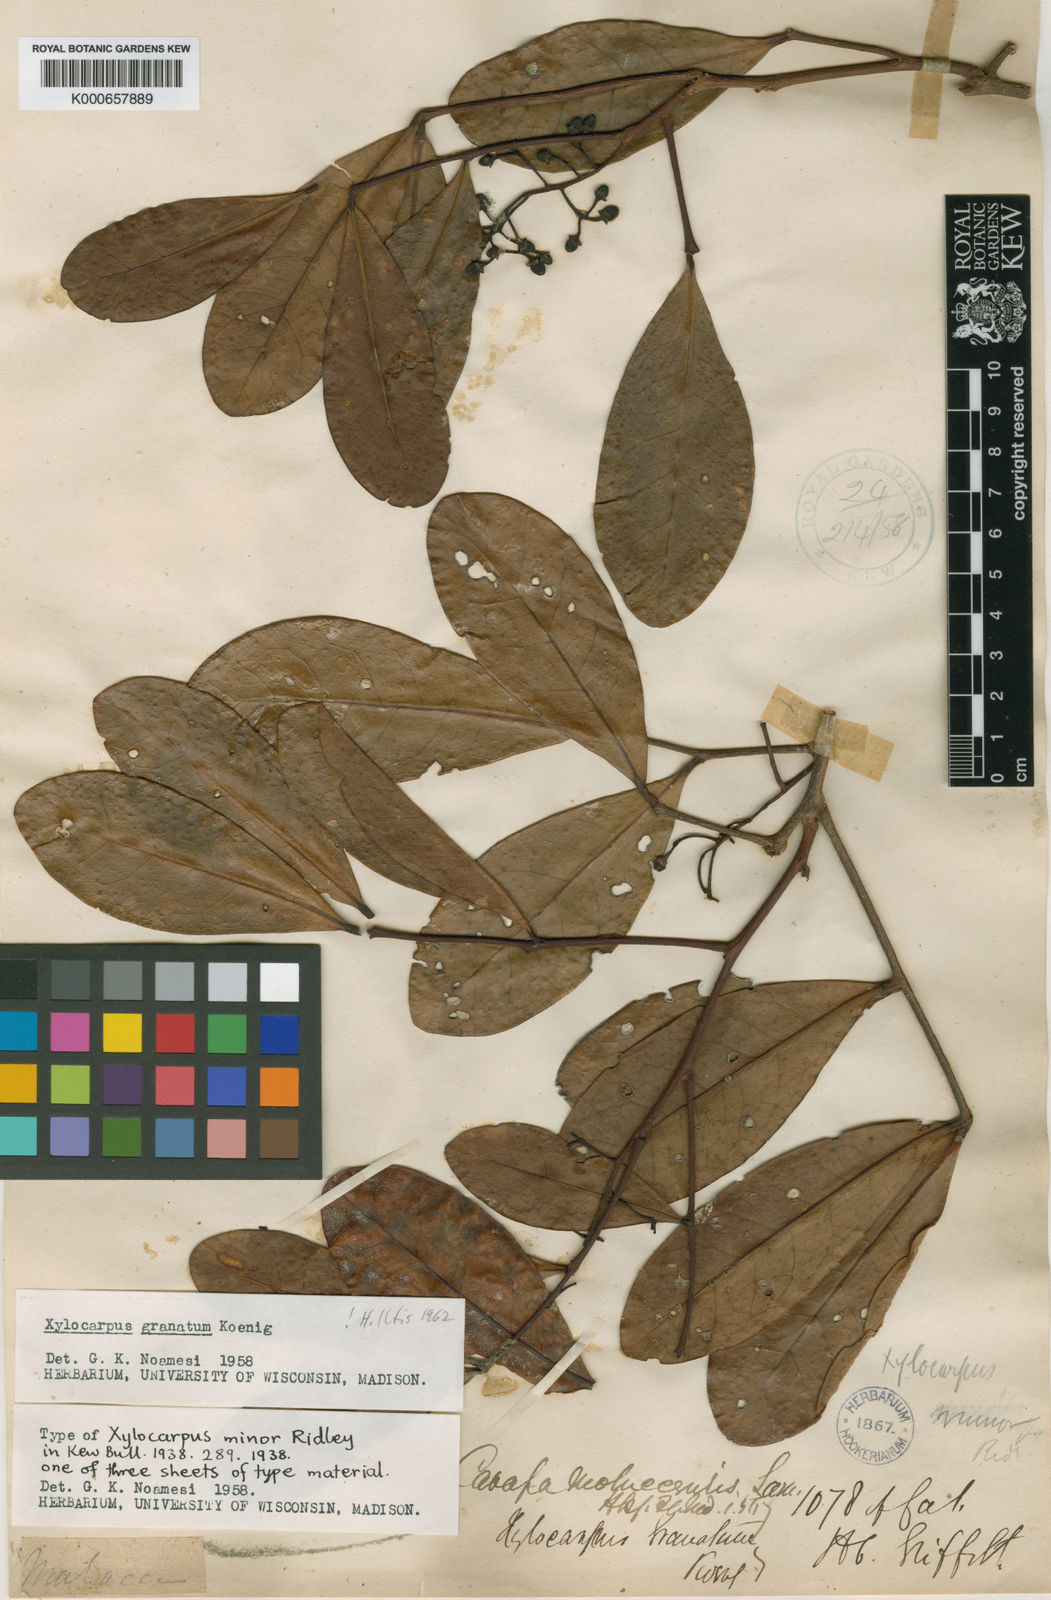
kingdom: Plantae
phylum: Tracheophyta
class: Magnoliopsida
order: Sapindales
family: Meliaceae
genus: Xylocarpus
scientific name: Xylocarpus granatum
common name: Apple mangrove
